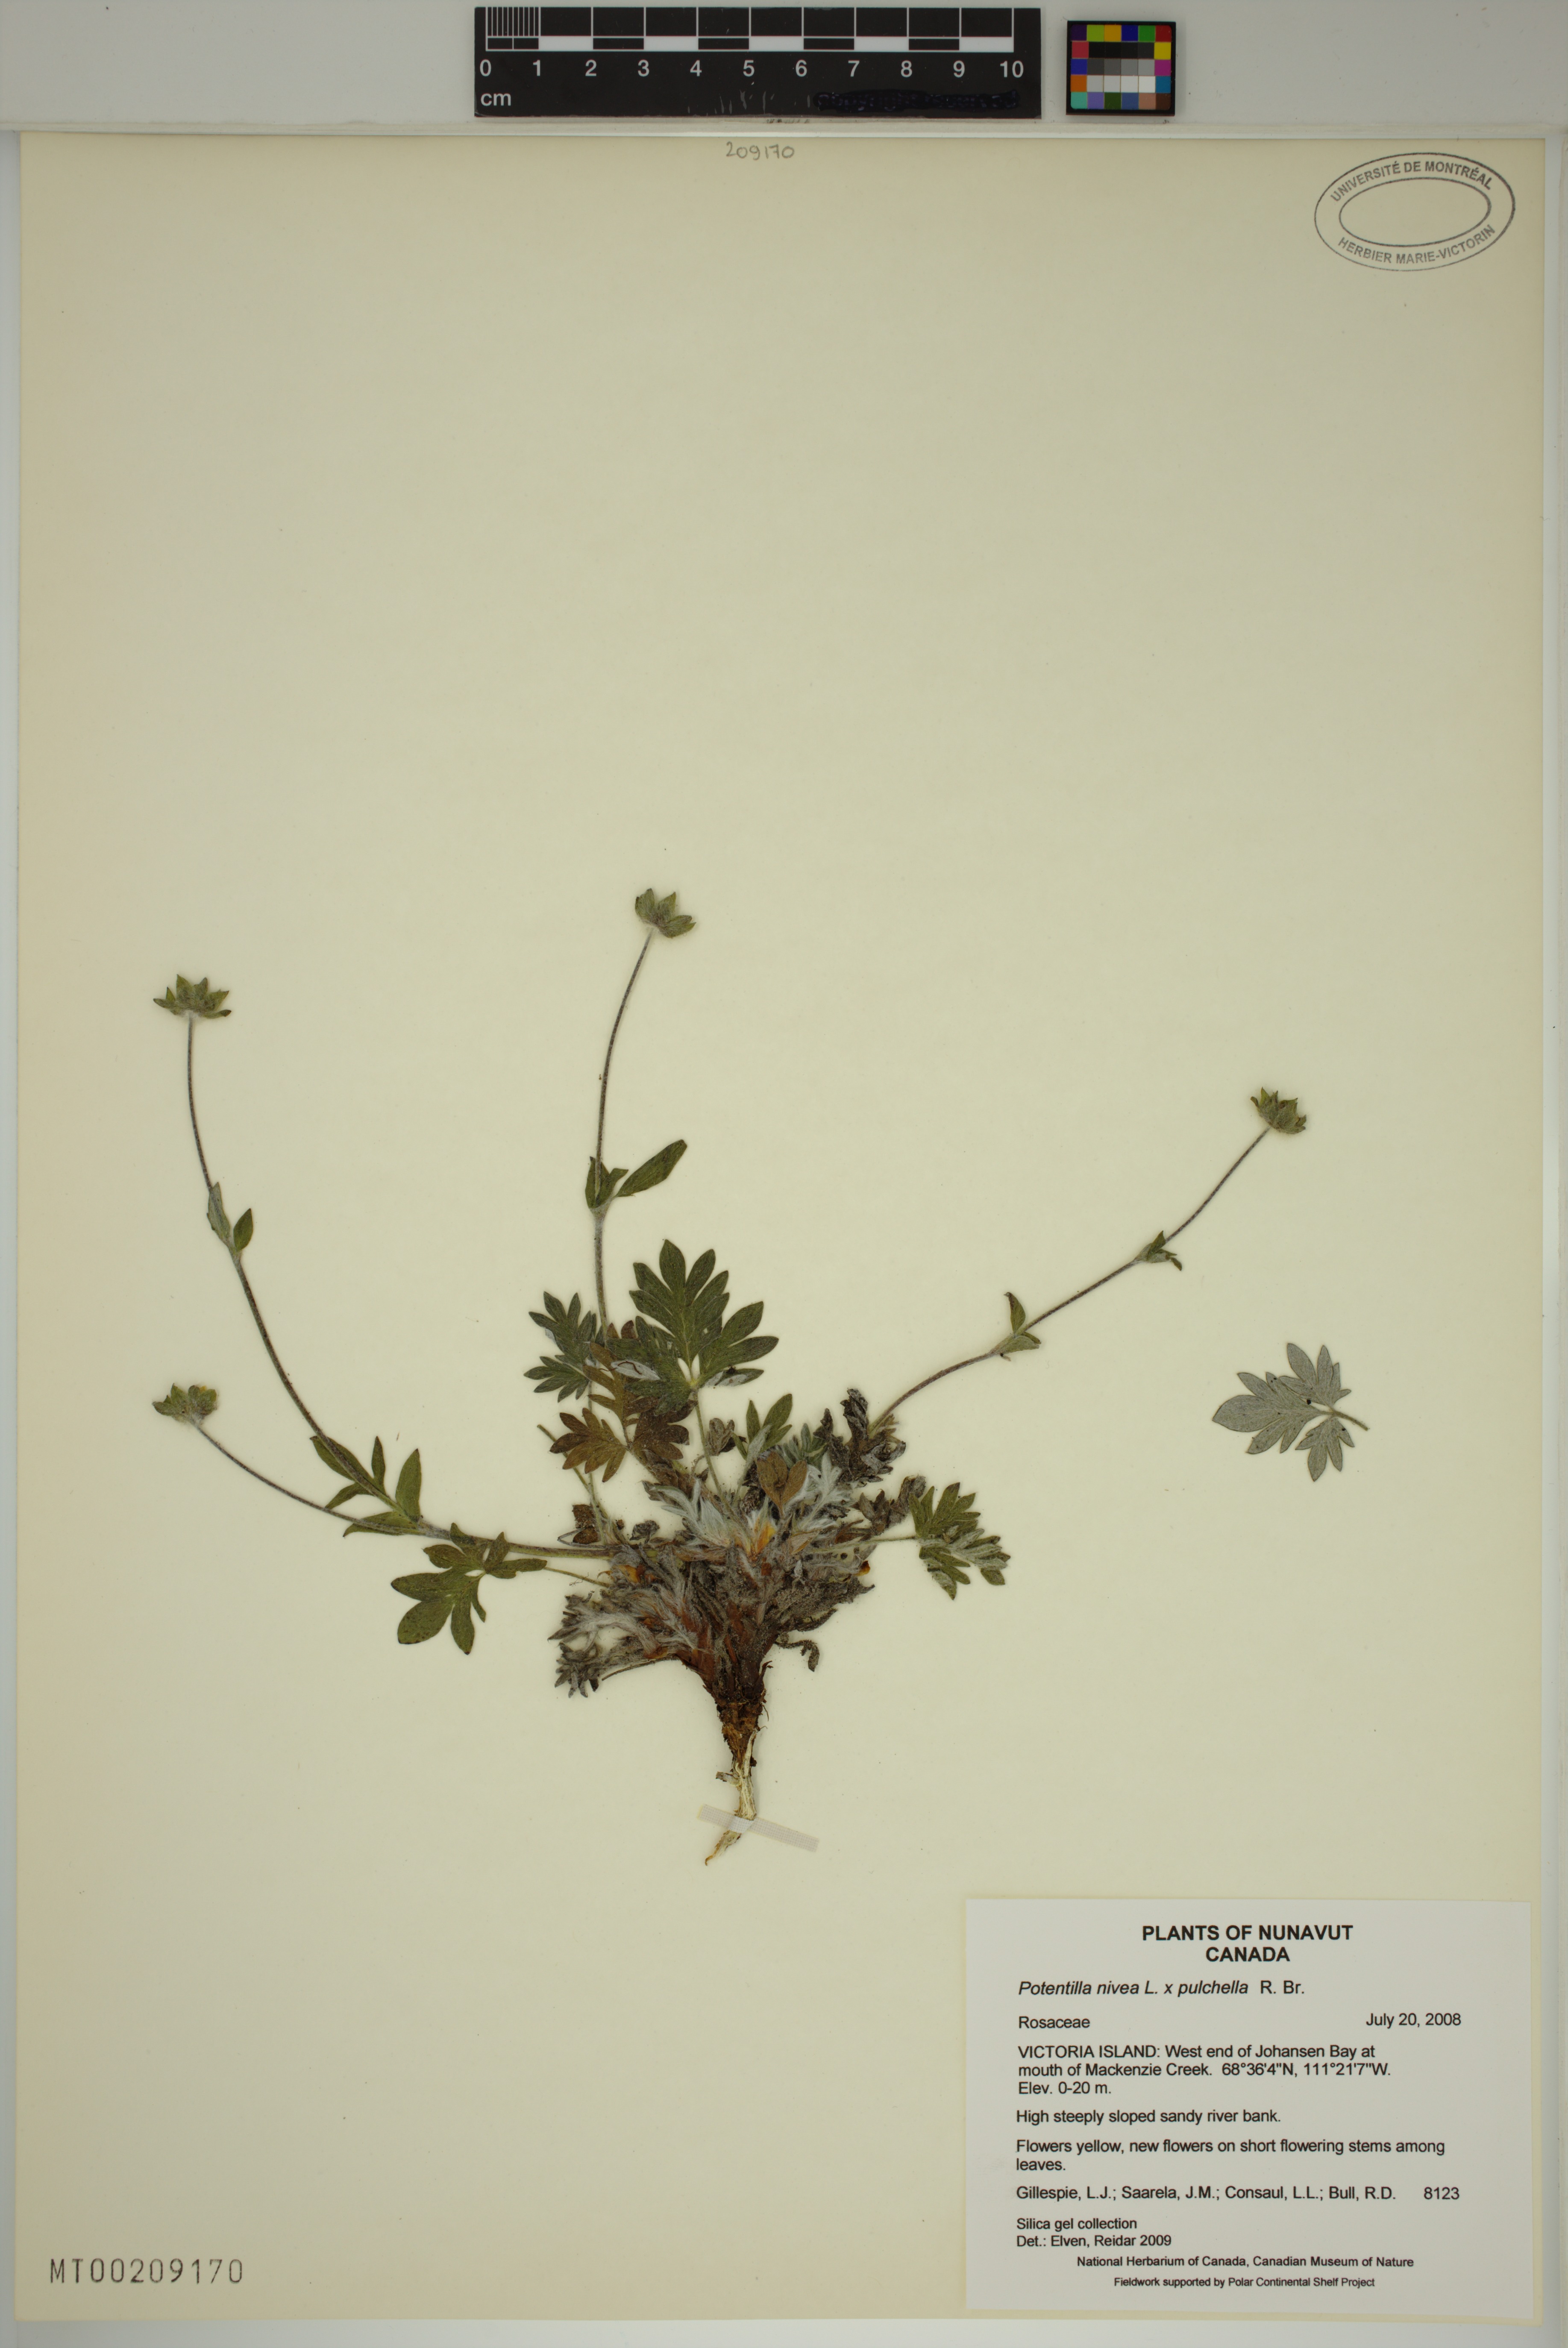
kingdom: Plantae
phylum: Tracheophyta
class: Magnoliopsida
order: Rosales
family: Rosaceae
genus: Potentilla
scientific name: Potentilla
